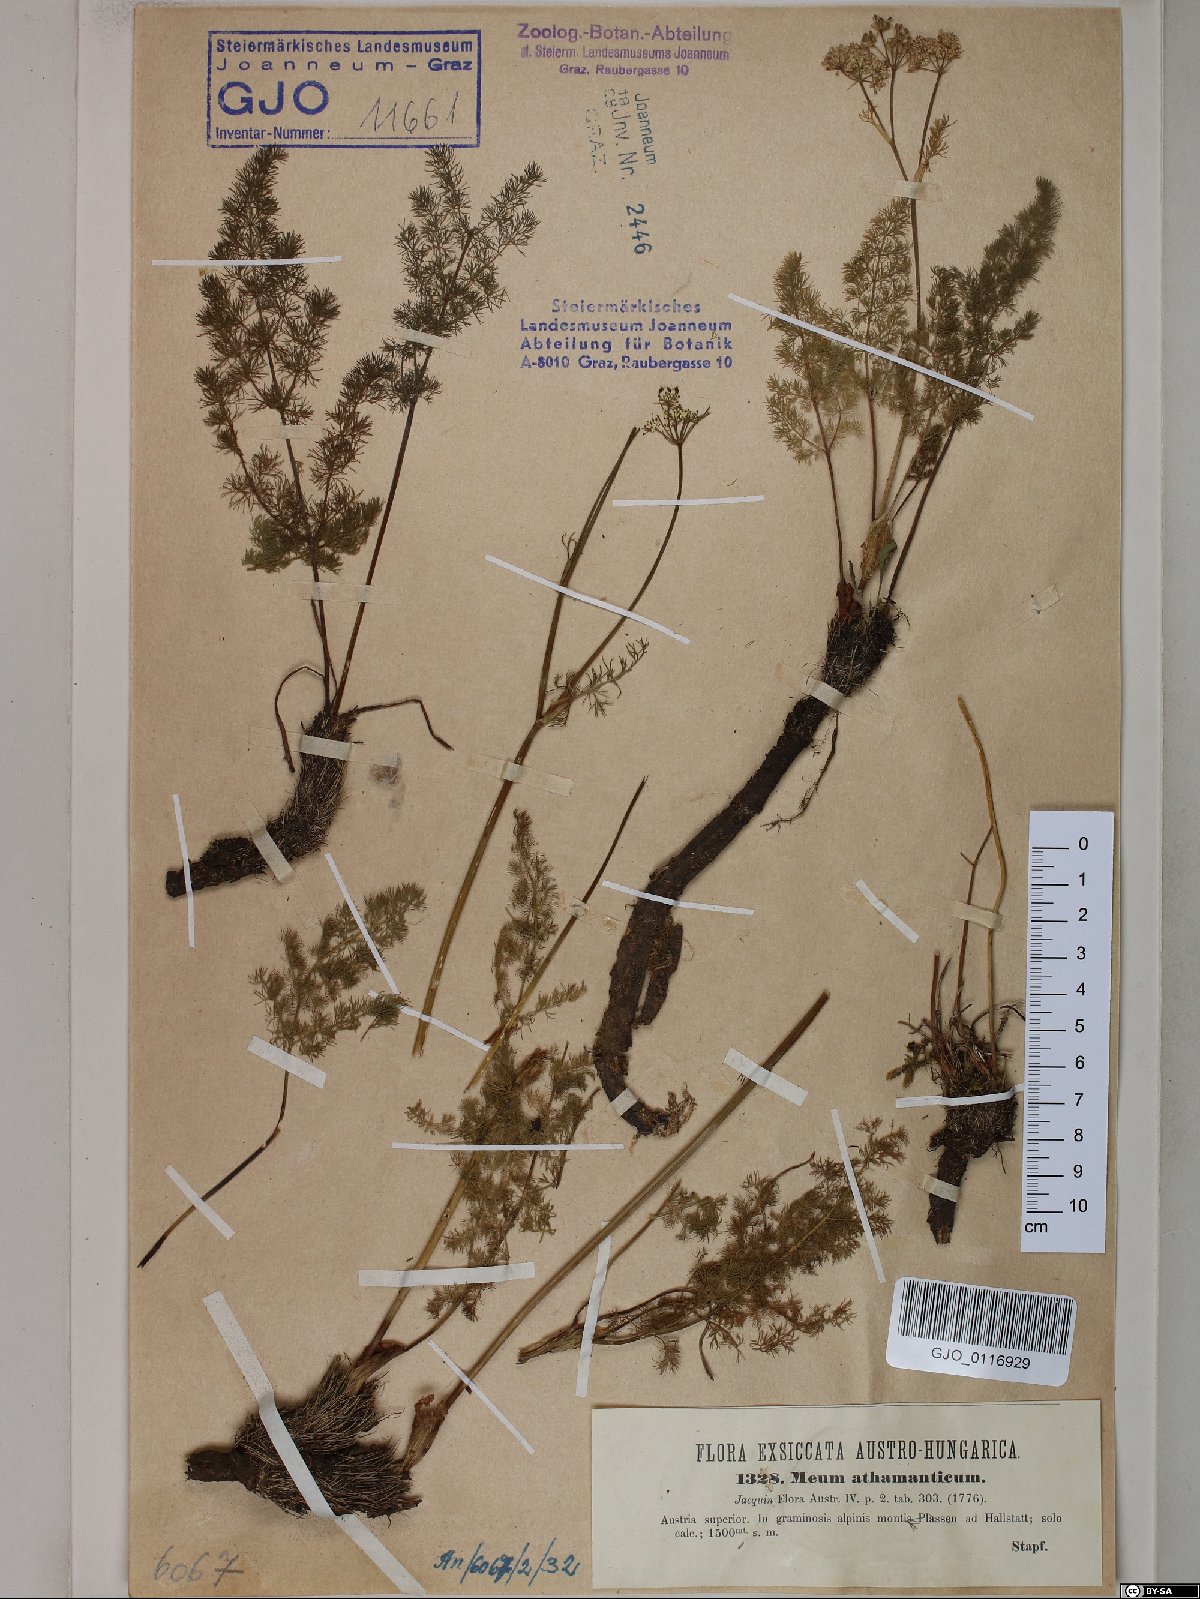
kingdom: Plantae
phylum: Tracheophyta
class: Magnoliopsida
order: Apiales
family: Apiaceae
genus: Meum
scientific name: Meum athamanticum
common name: Spignel
